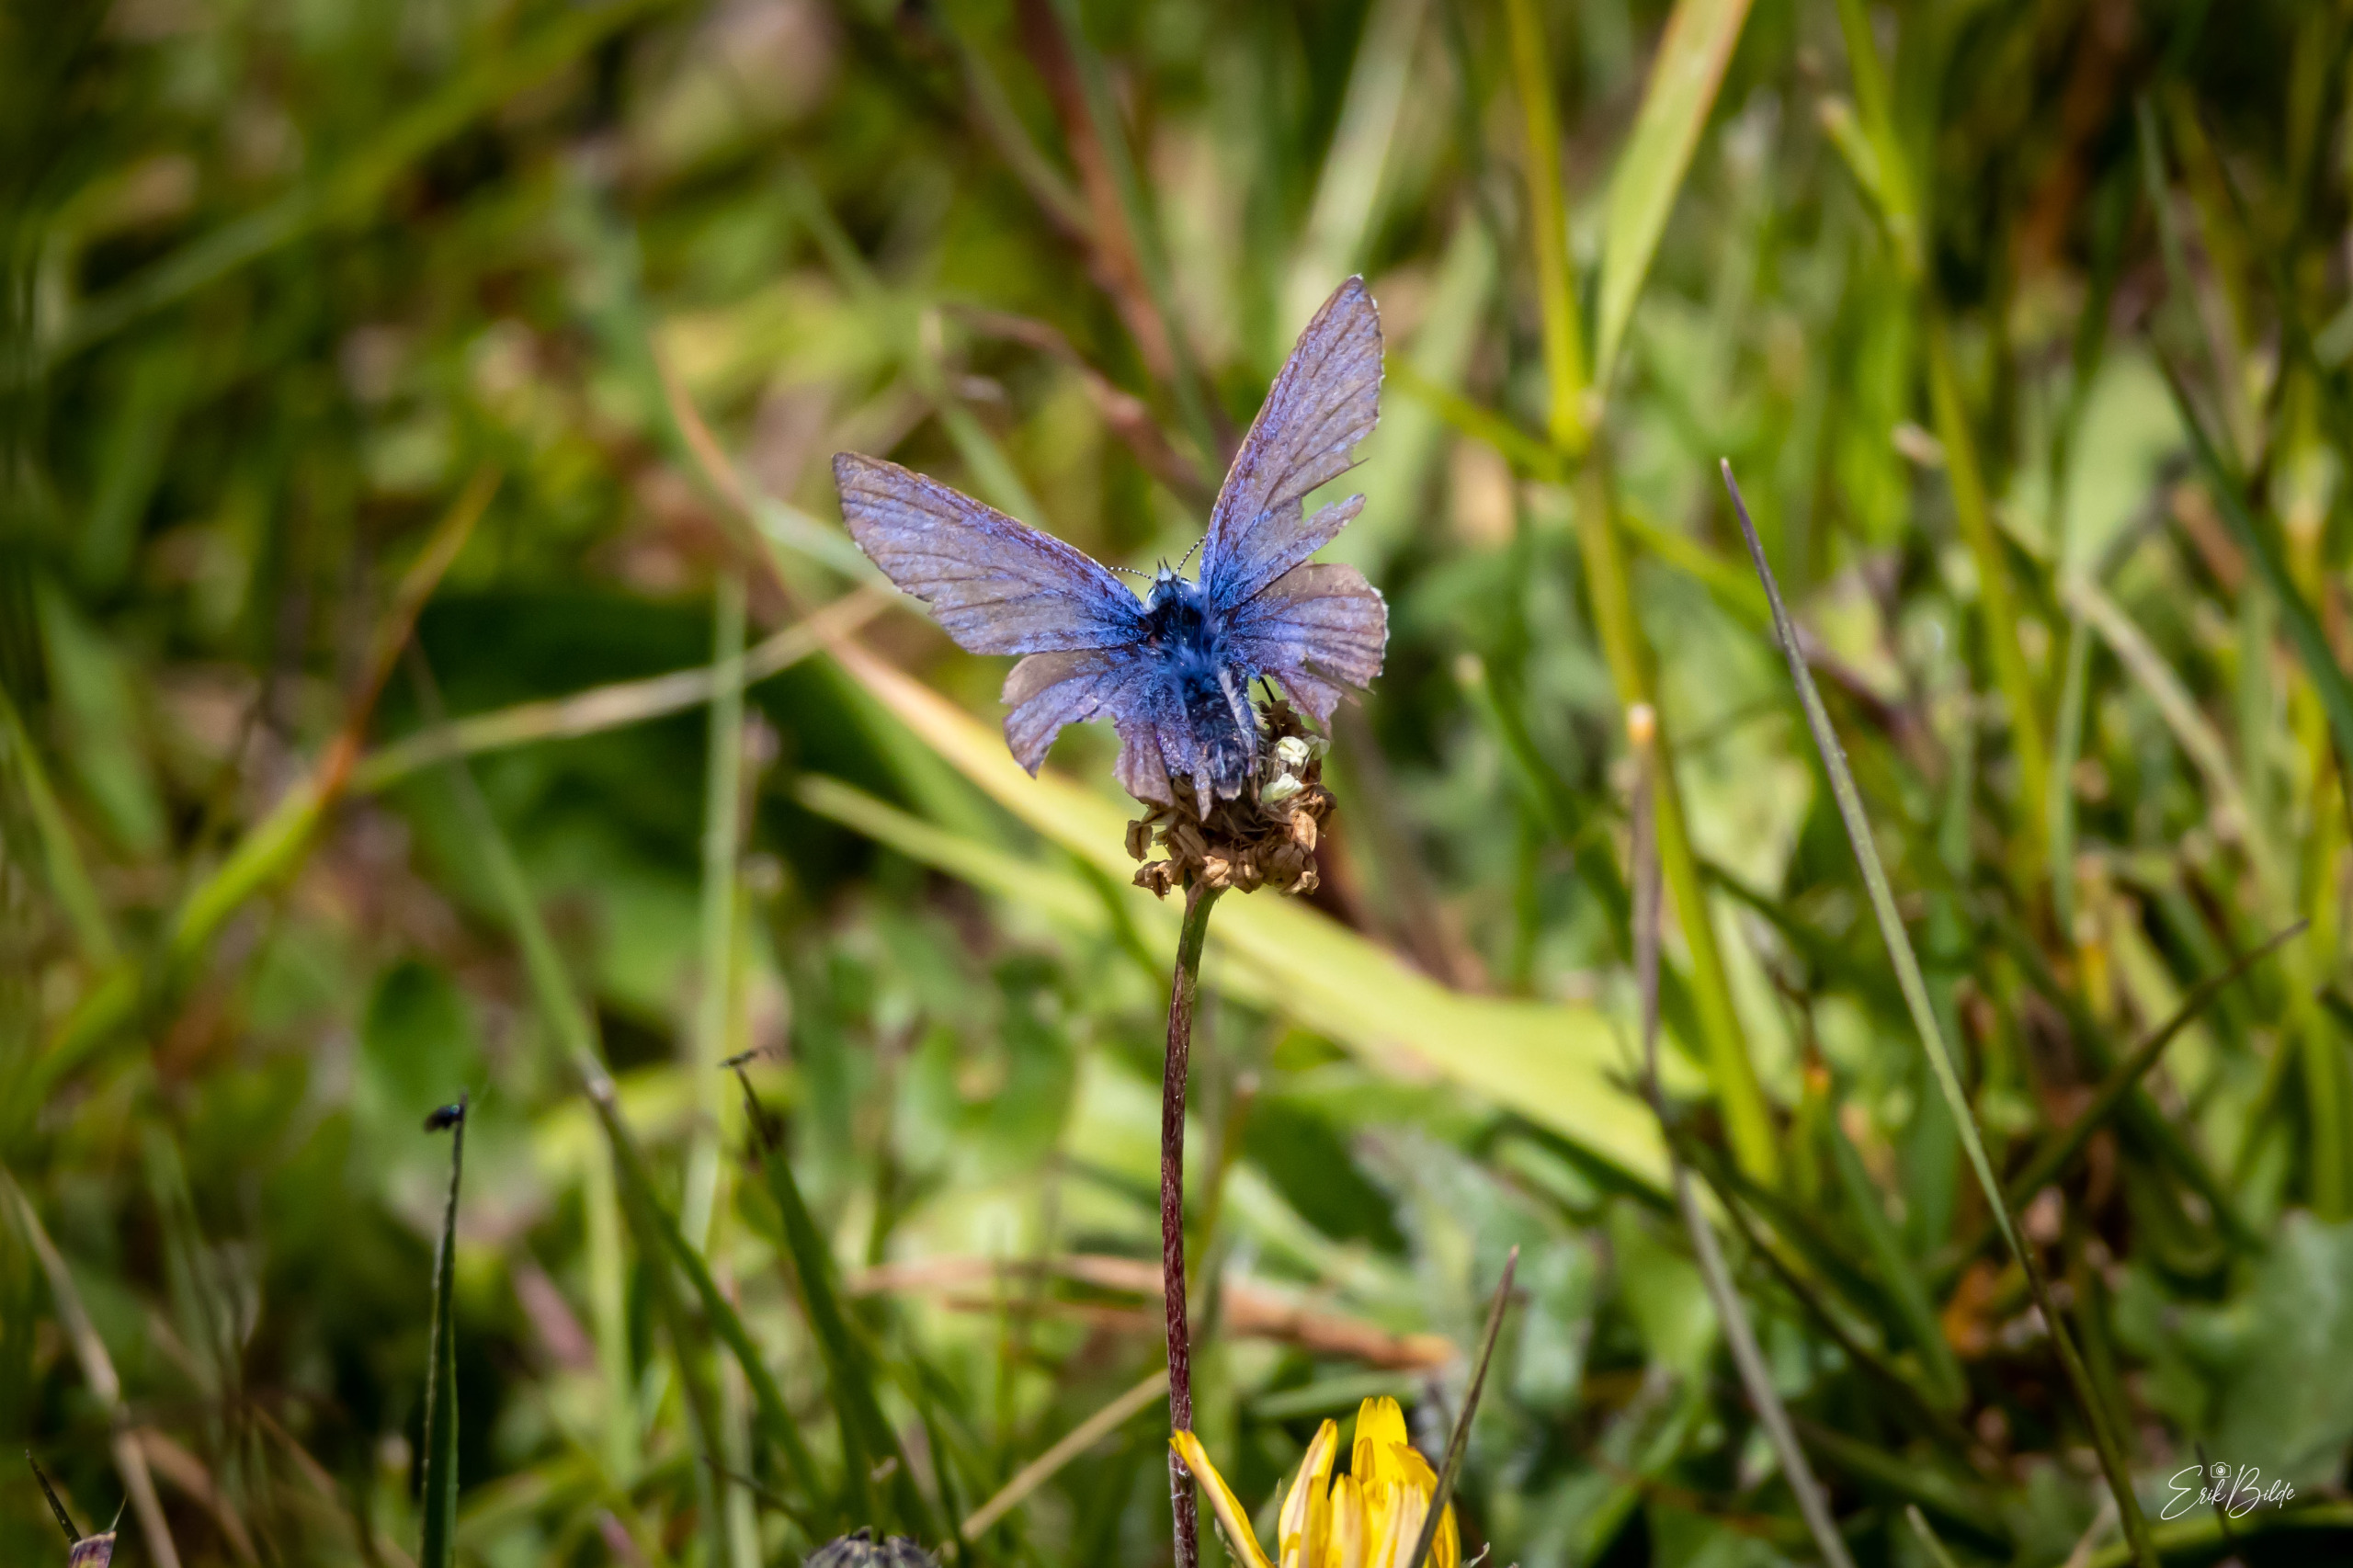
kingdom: Animalia
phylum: Arthropoda
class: Insecta
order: Lepidoptera
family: Lycaenidae
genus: Polyommatus
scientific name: Polyommatus icarus
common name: Almindelig blåfugl
